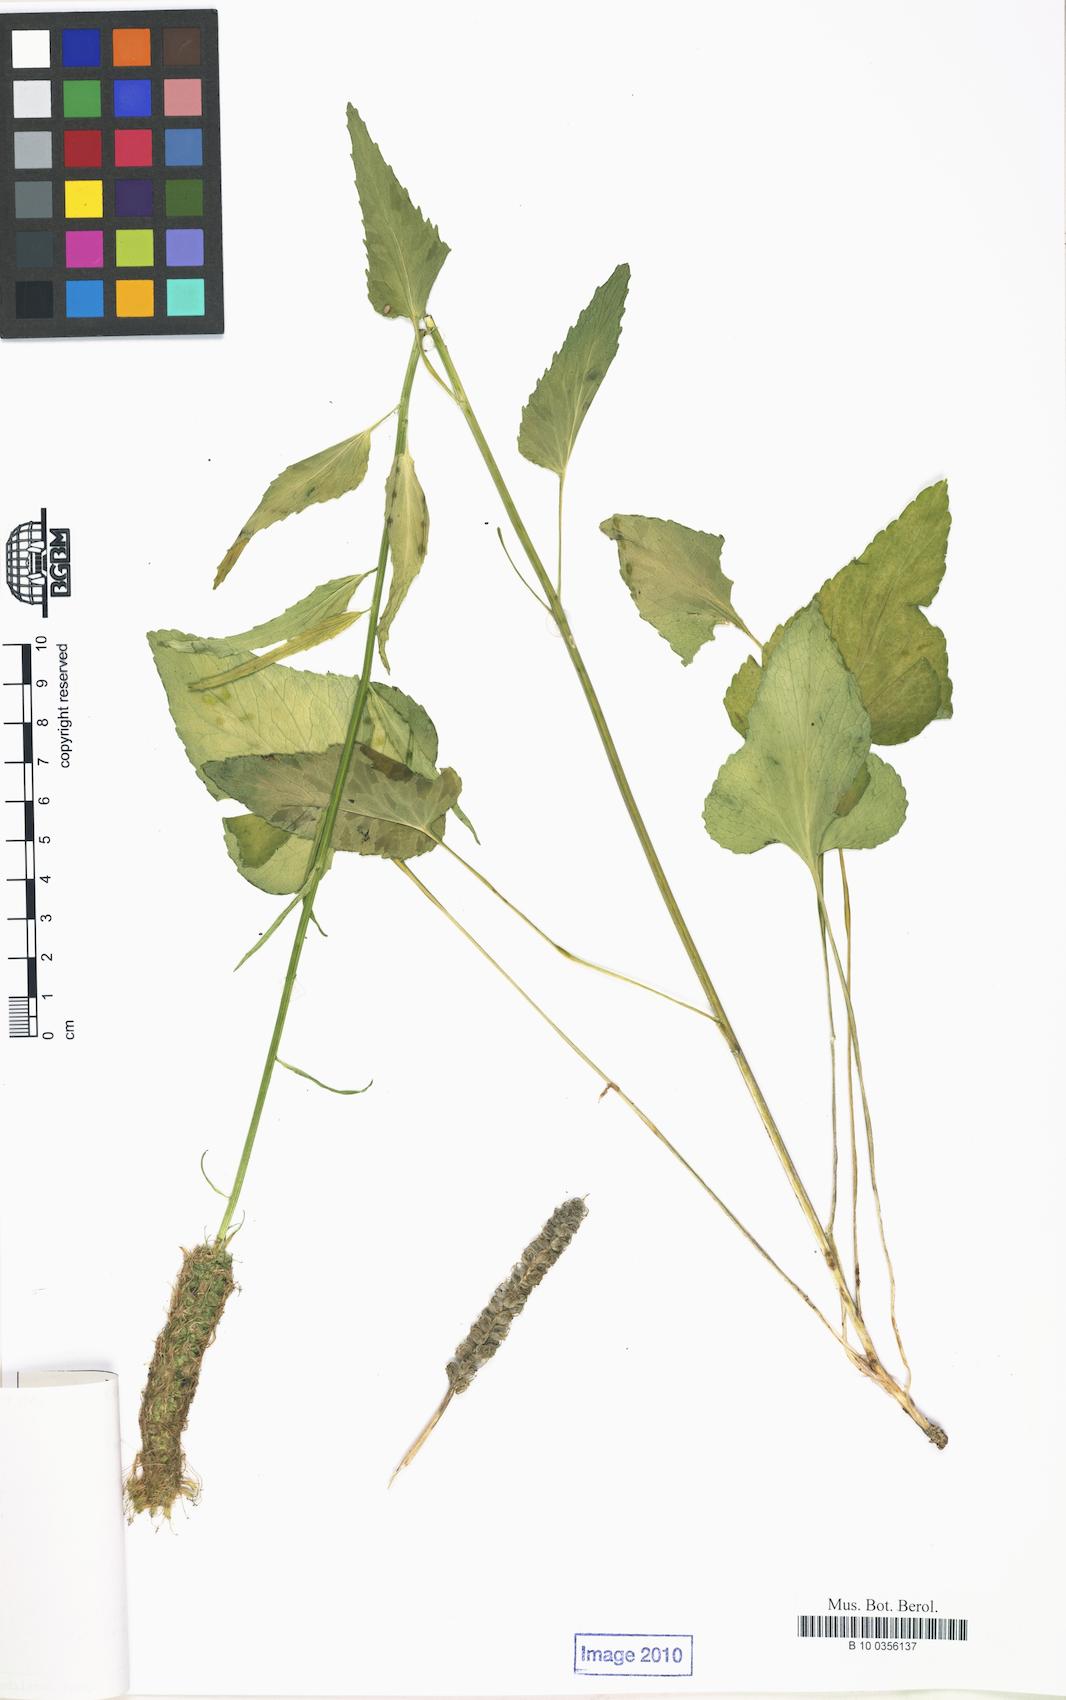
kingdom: Plantae
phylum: Tracheophyta
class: Magnoliopsida
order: Asterales
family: Campanulaceae
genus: Phyteuma
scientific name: Phyteuma spicatum
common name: Spiked rampion
